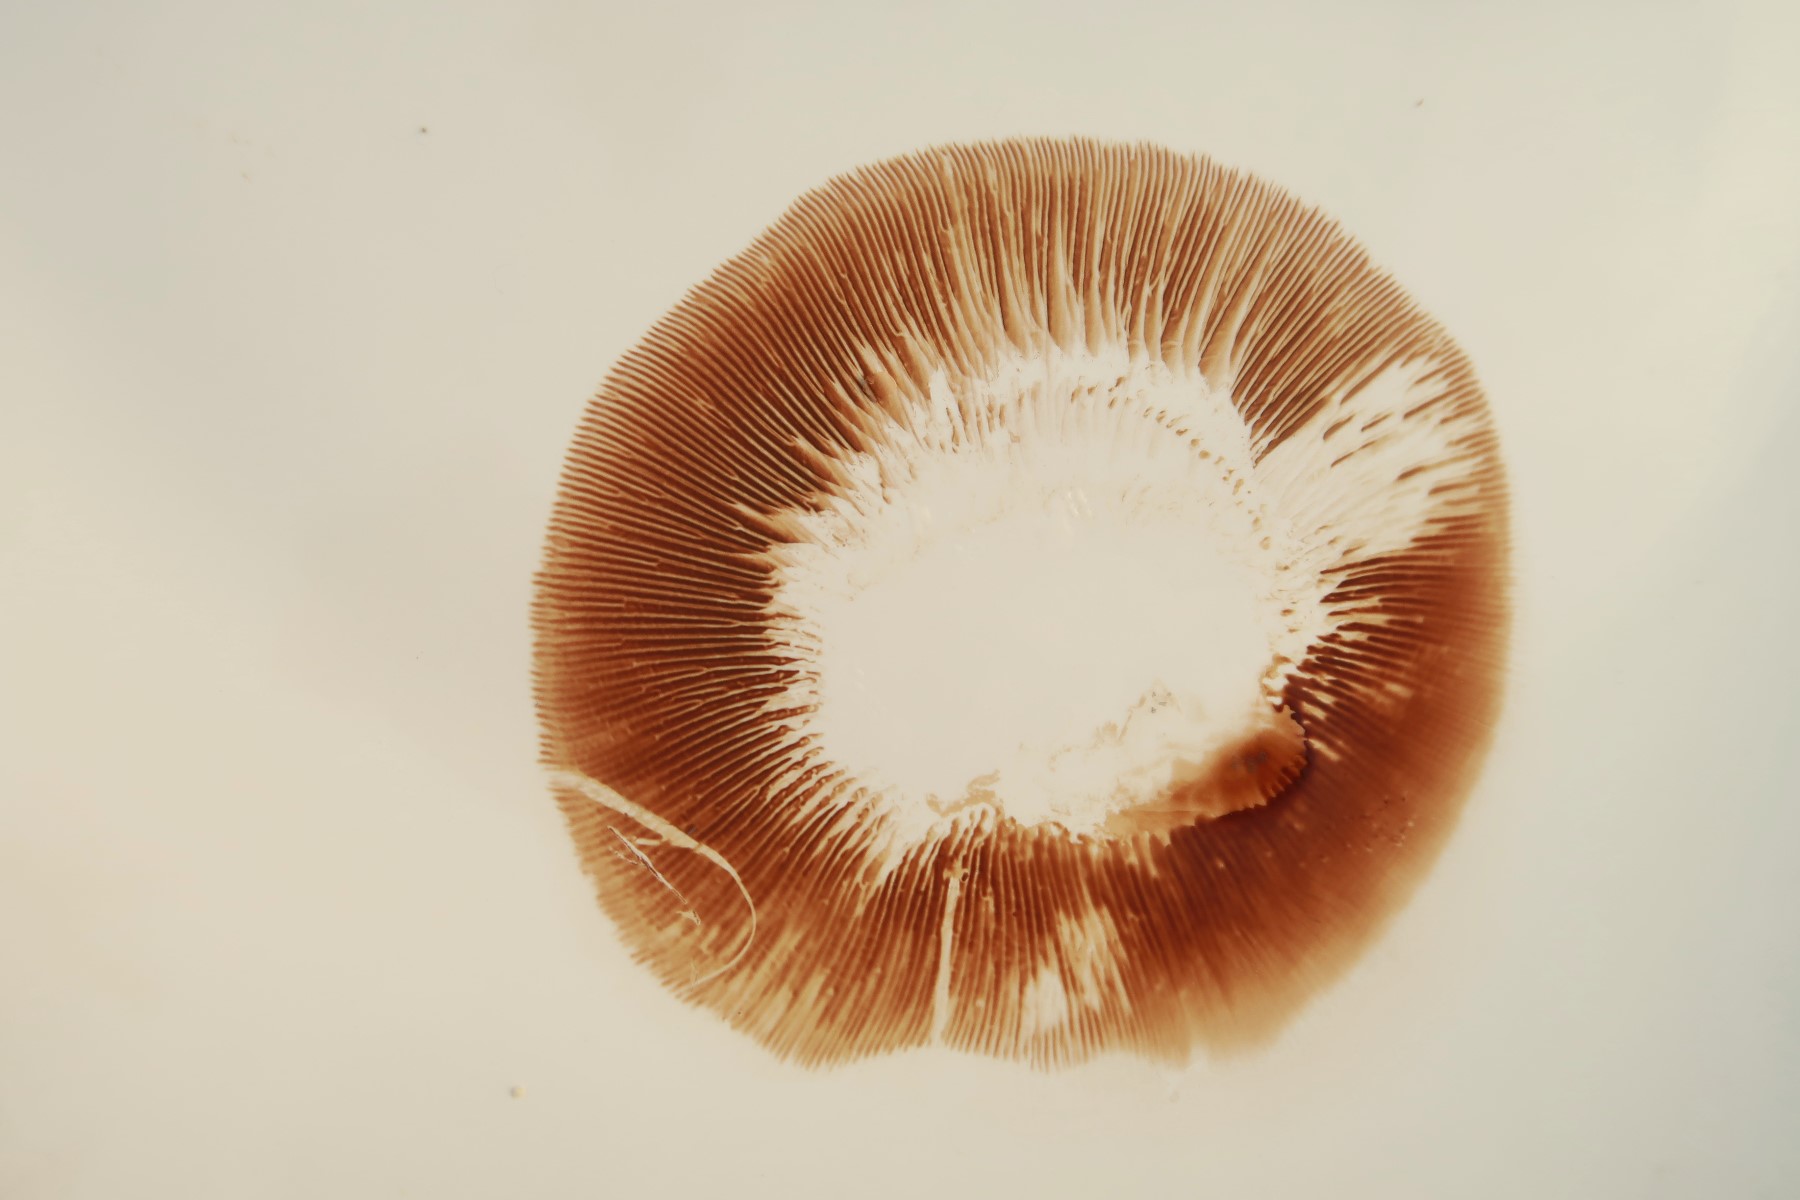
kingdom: Fungi
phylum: Basidiomycota
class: Agaricomycetes
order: Boletales
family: Paxillaceae
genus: Paxillus
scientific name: Paxillus obscurisporus
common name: mahognisporet netbladhat
